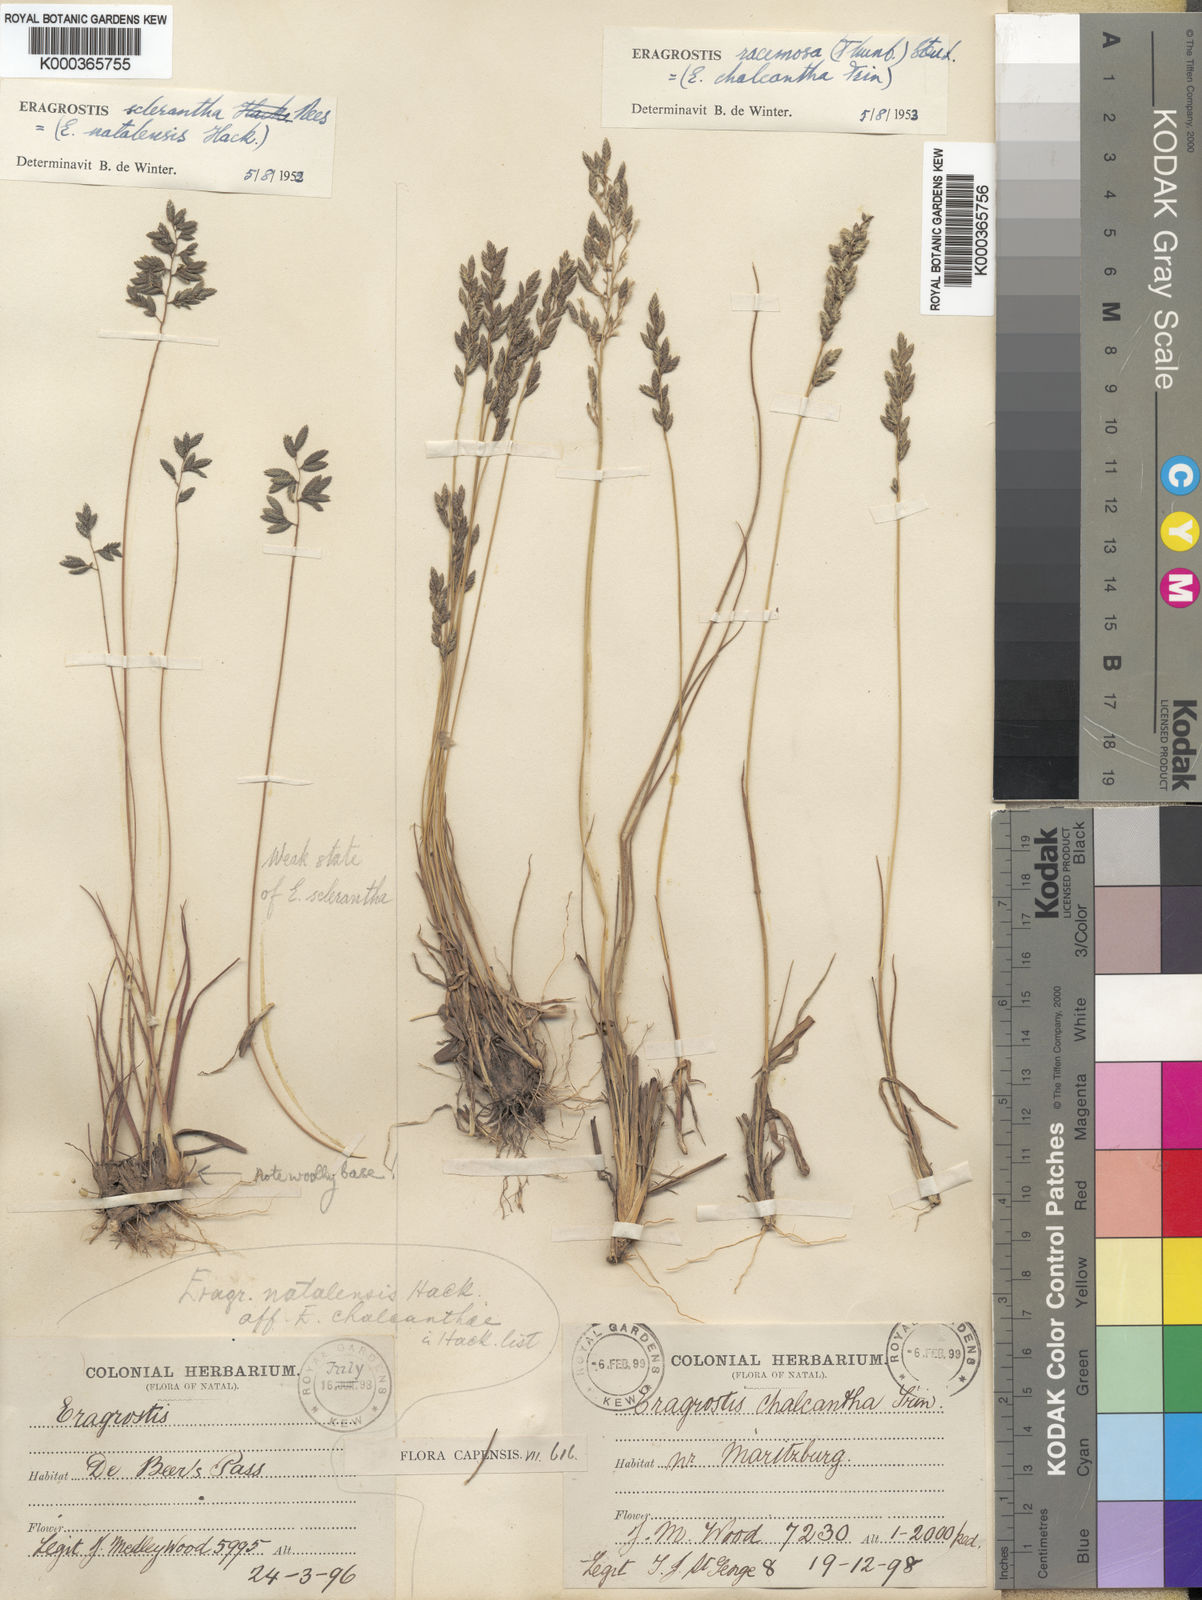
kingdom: Plantae
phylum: Tracheophyta
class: Liliopsida
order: Poales
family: Poaceae
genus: Eragrostis
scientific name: Eragrostis sclerantha
